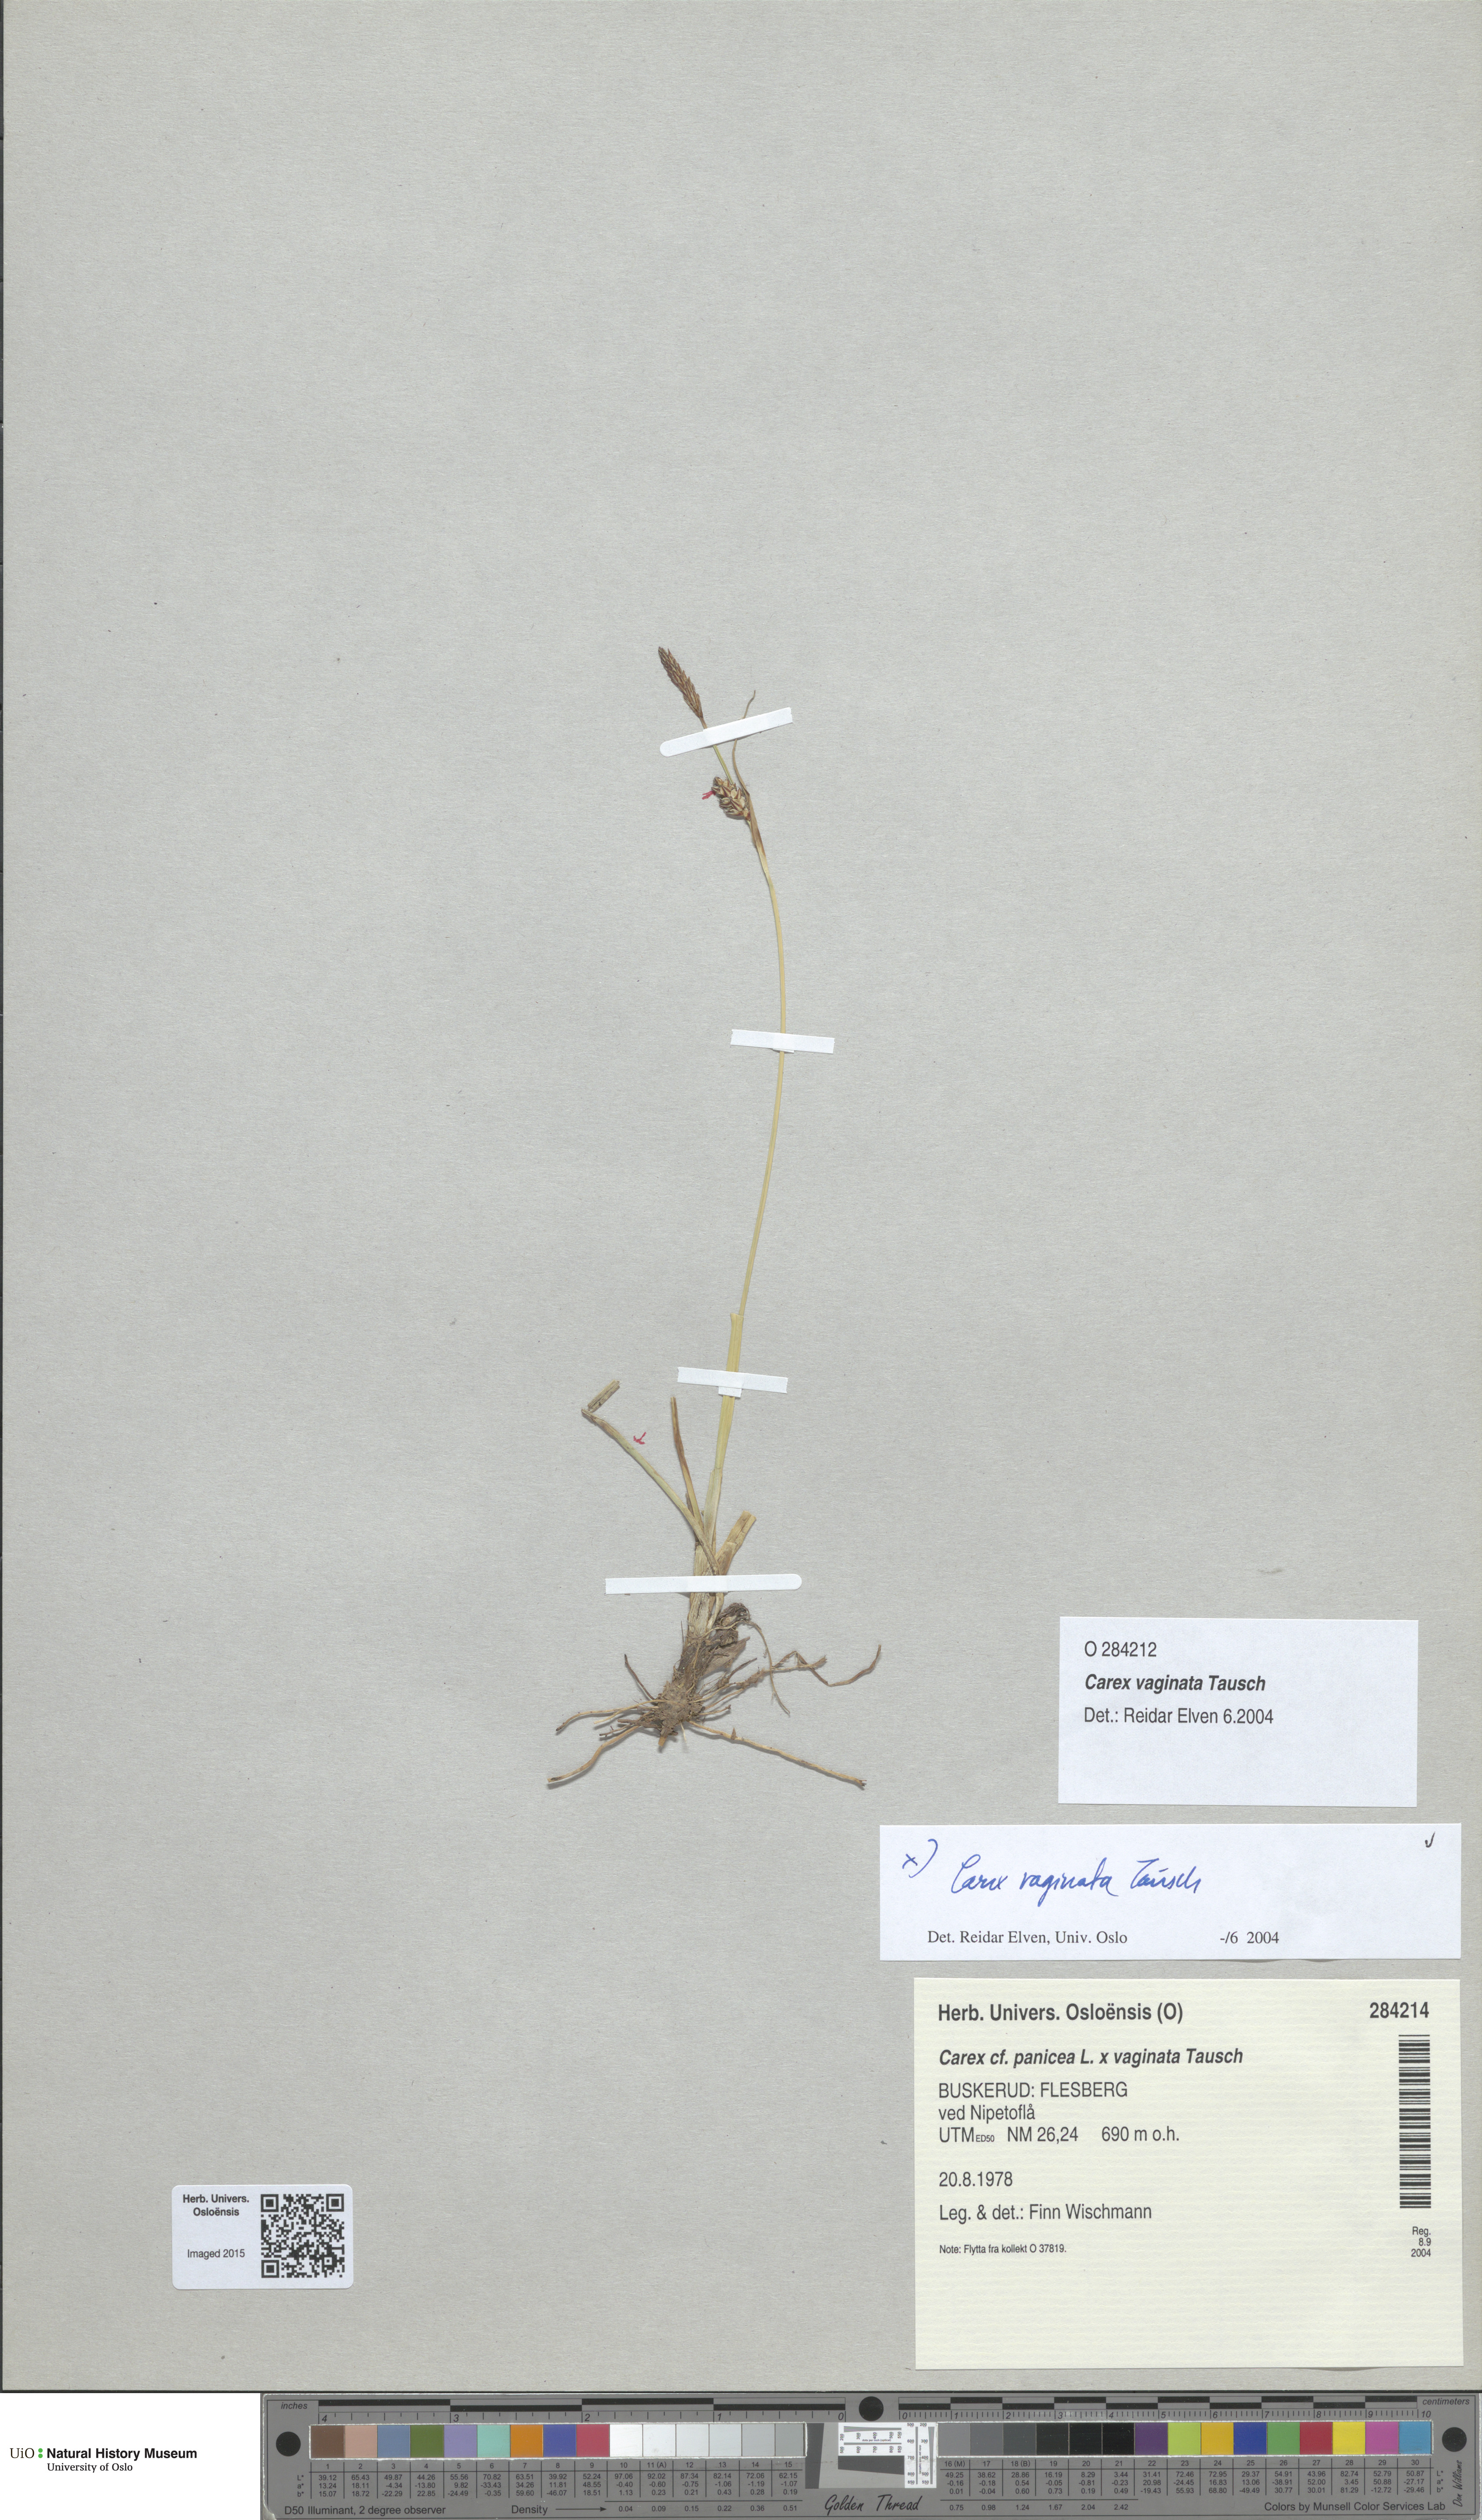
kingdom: Plantae
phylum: Tracheophyta
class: Liliopsida
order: Poales
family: Cyperaceae
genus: Carex
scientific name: Carex
